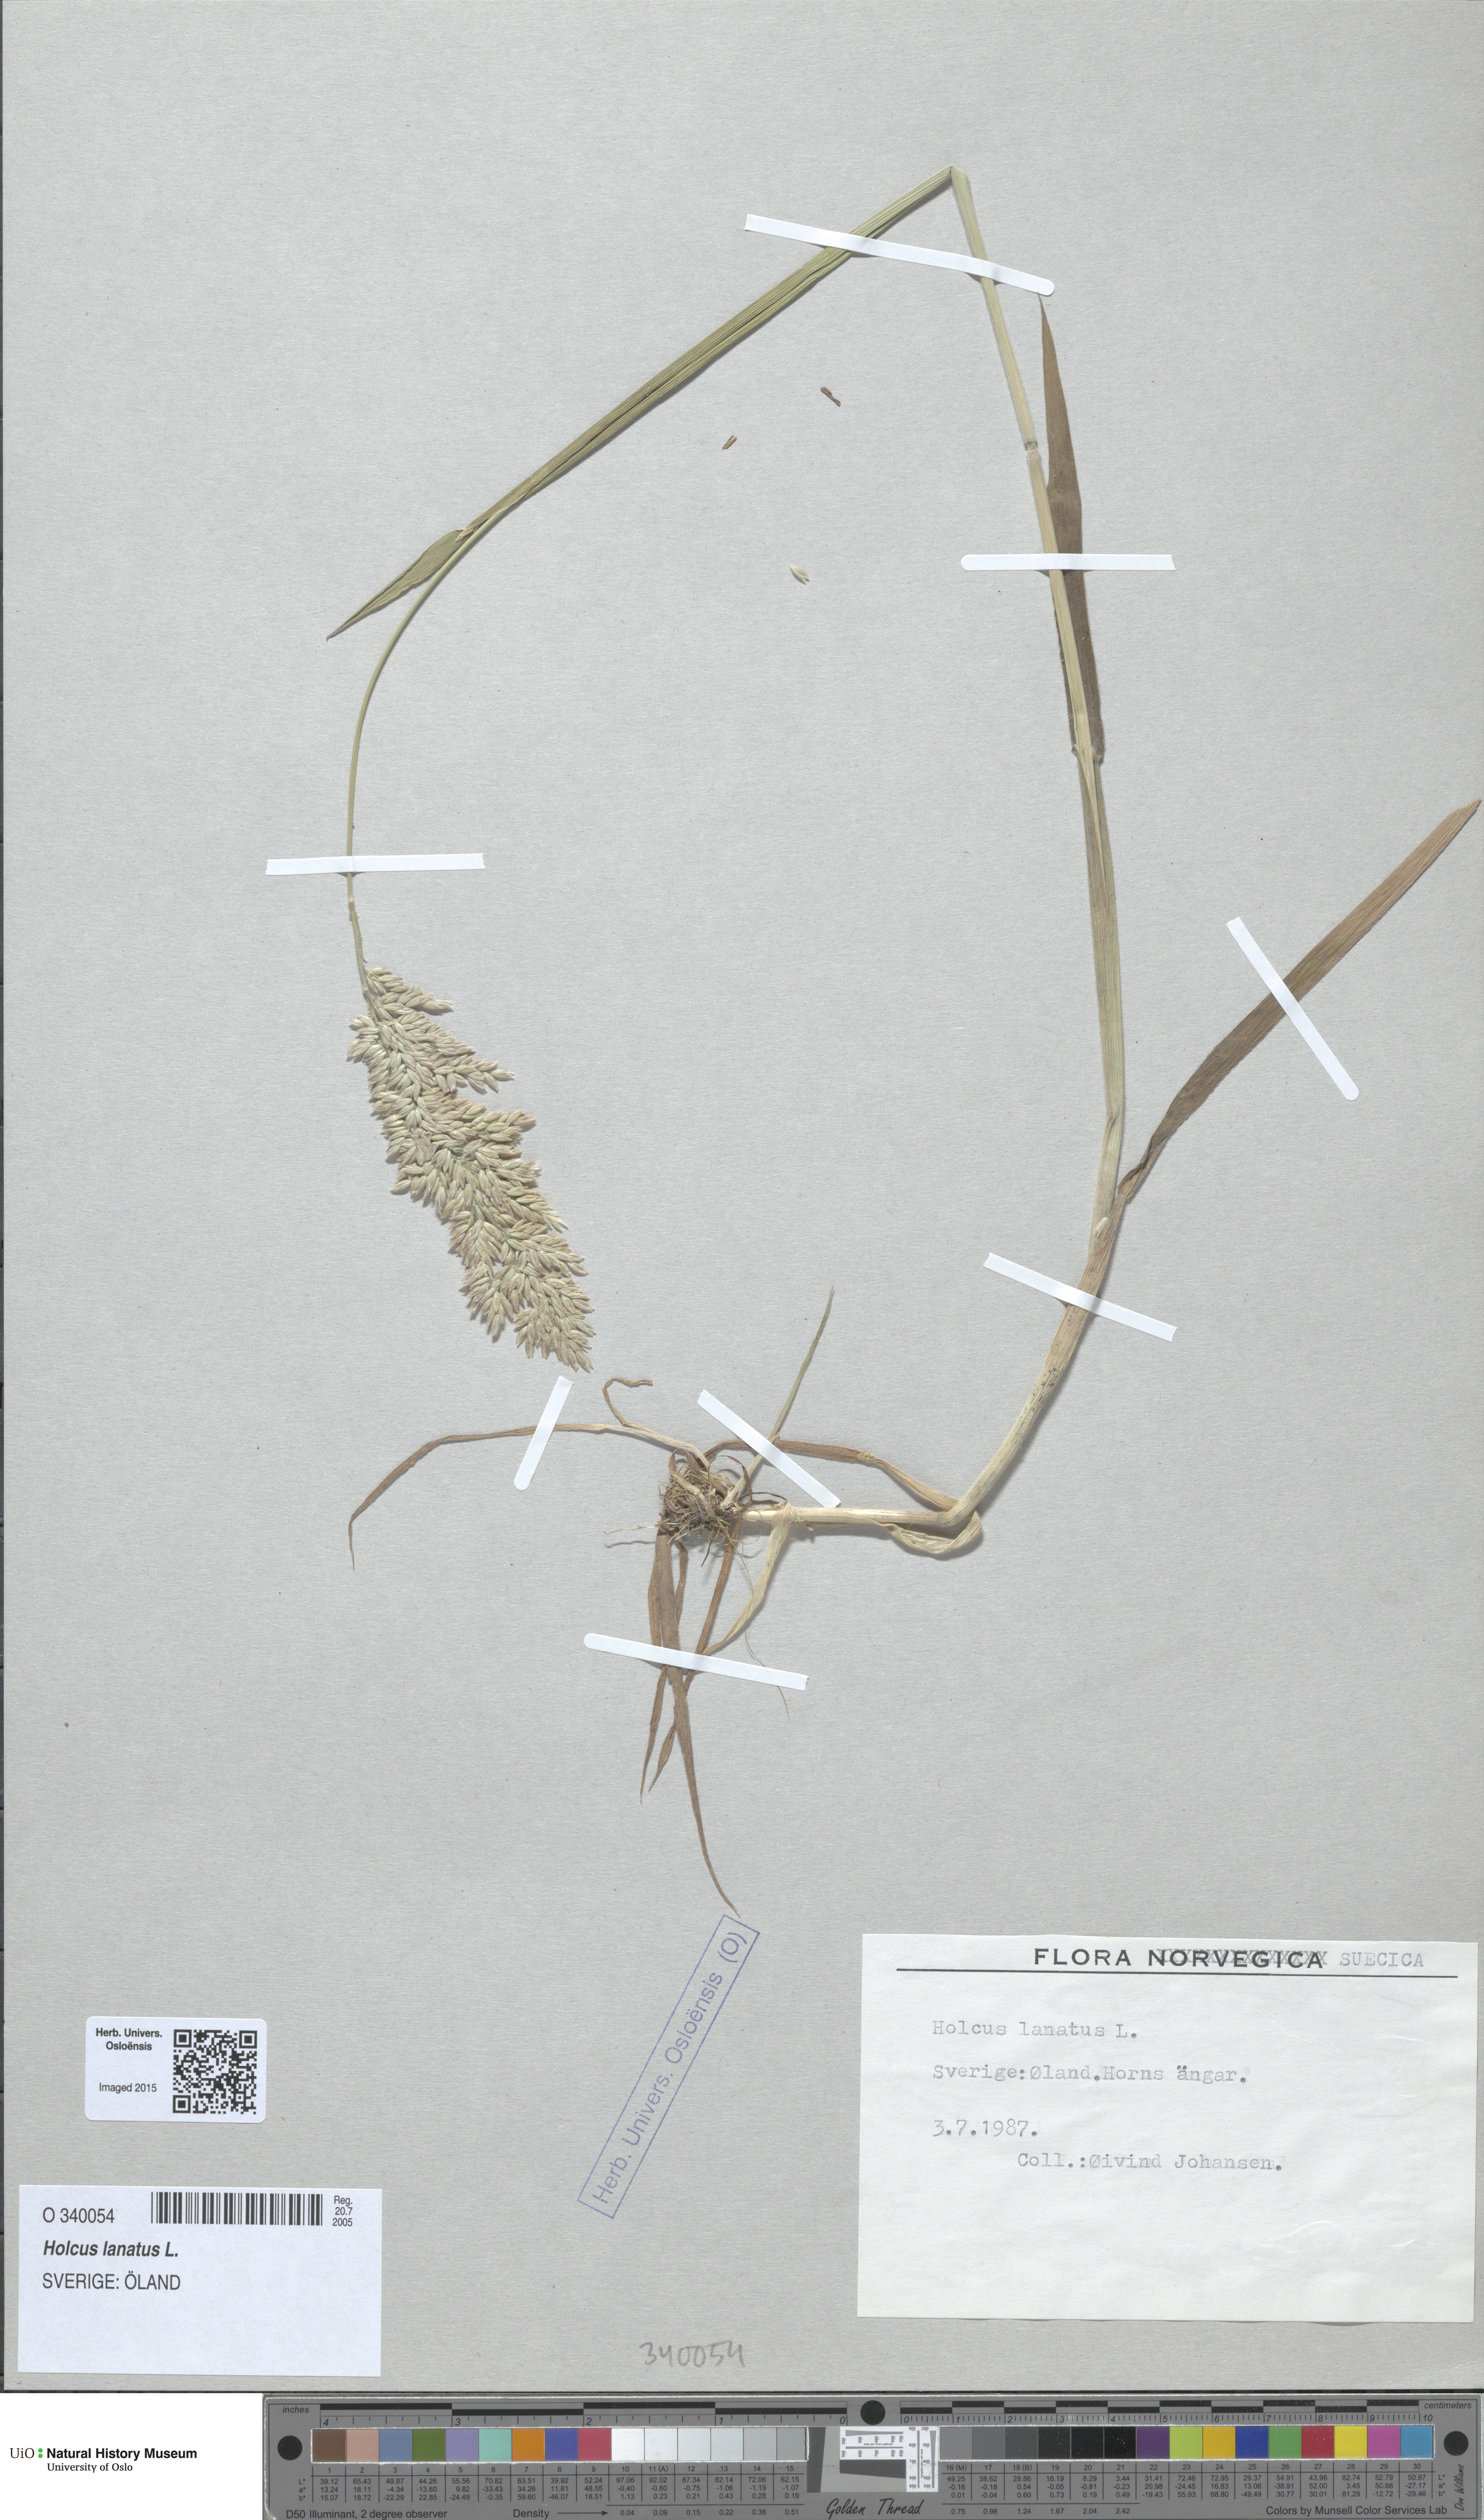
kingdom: Plantae
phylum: Tracheophyta
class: Liliopsida
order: Poales
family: Poaceae
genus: Holcus
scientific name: Holcus lanatus
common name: Yorkshire-fog
